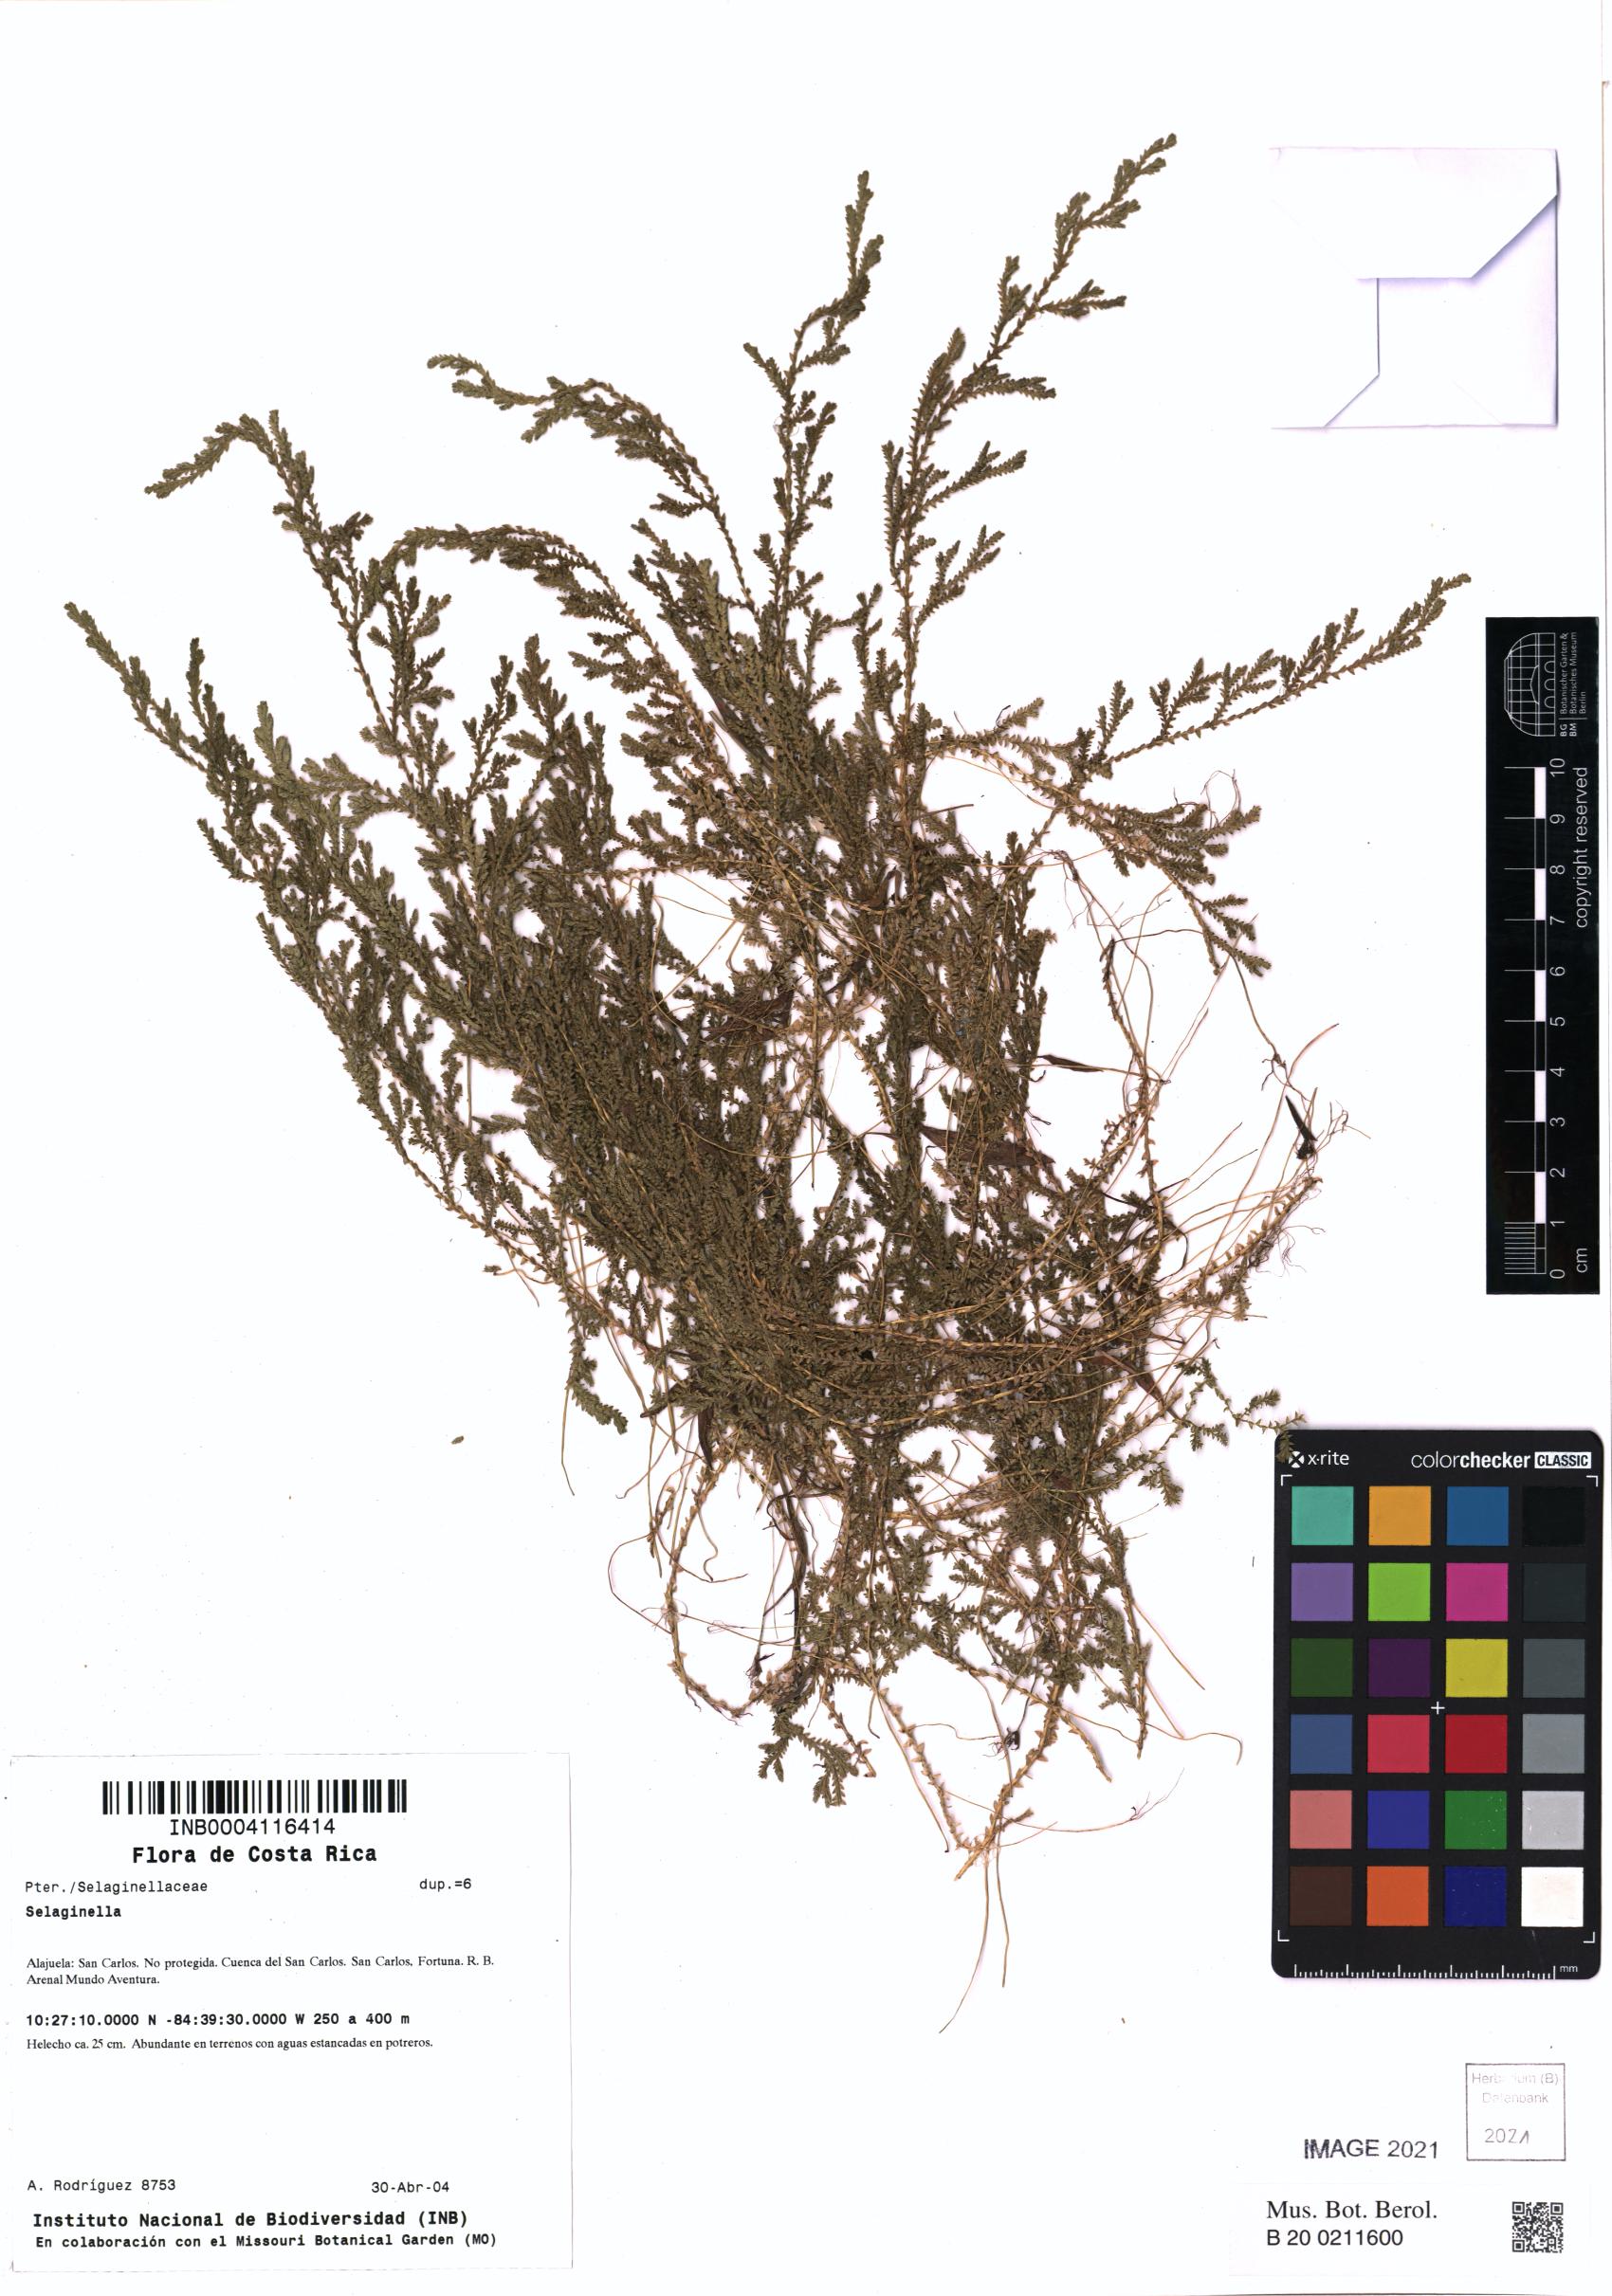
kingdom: Plantae
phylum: Tracheophyta
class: Lycopodiopsida
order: Selaginellales
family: Selaginellaceae
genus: Selaginella
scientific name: Selaginella
